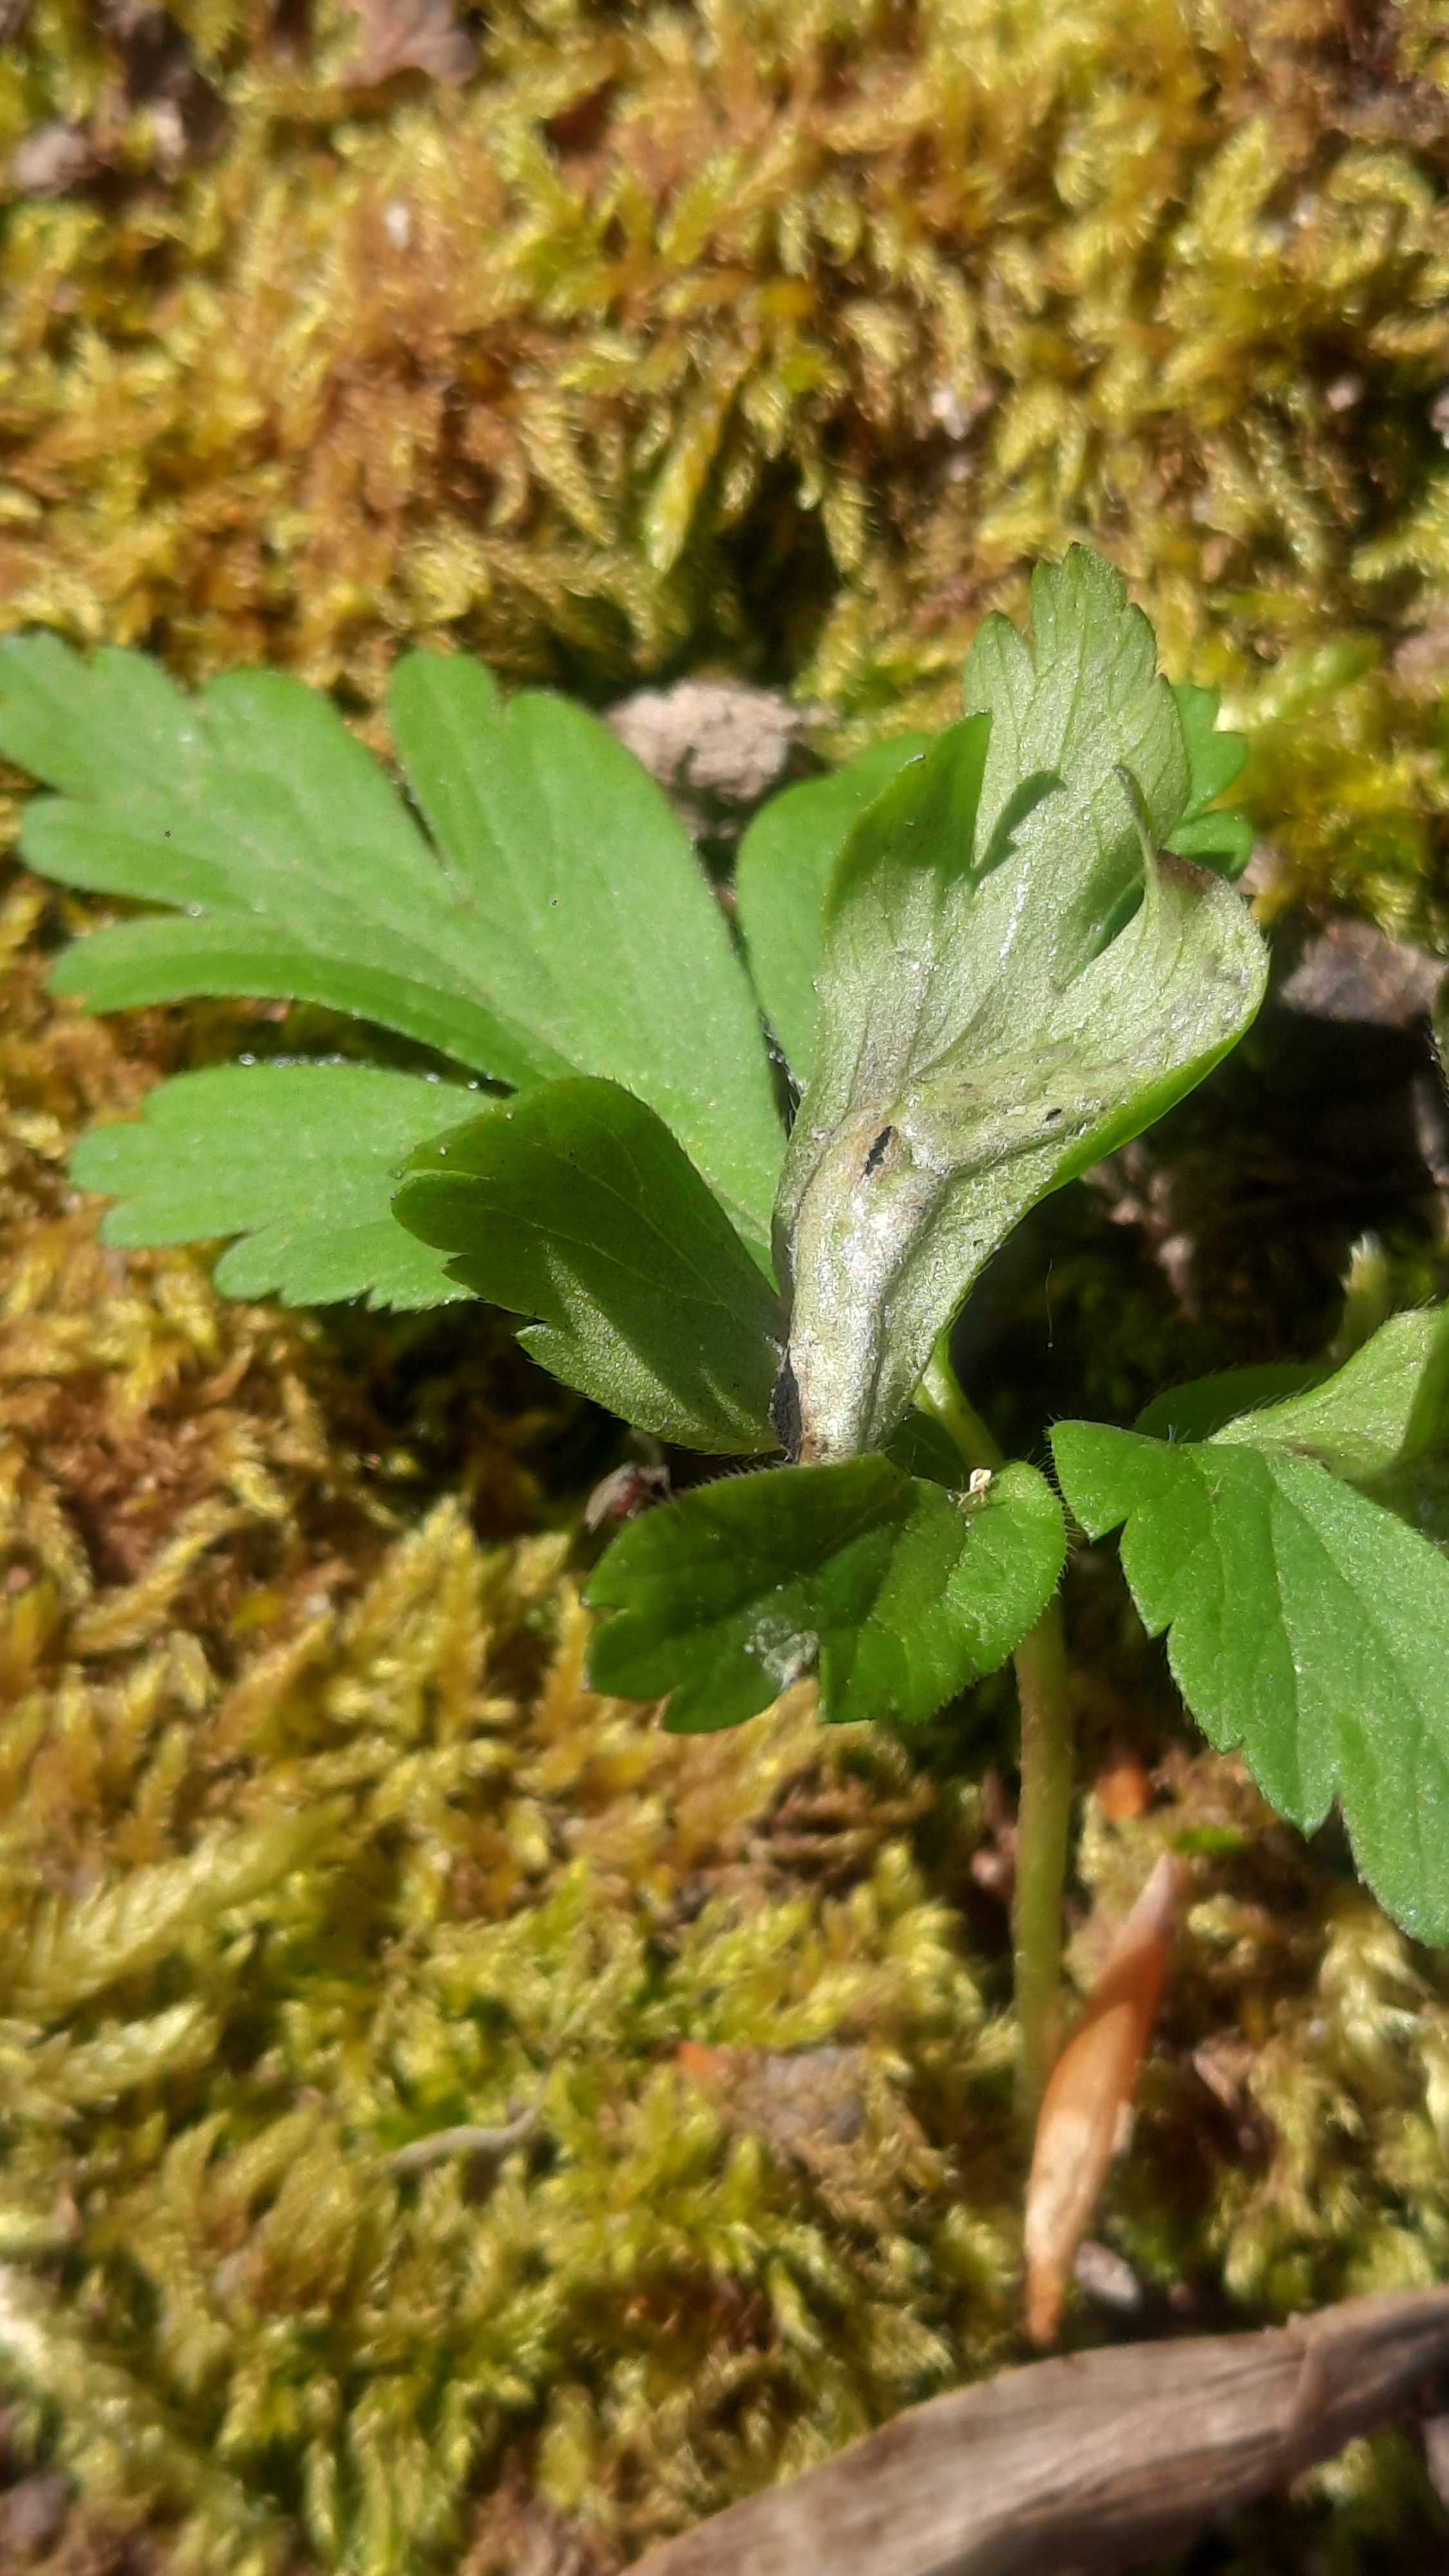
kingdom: Fungi
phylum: Basidiomycota
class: Ustilaginomycetes
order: Urocystidales
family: Urocystidaceae
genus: Urocystis
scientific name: Urocystis anemones
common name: anemone-brand
